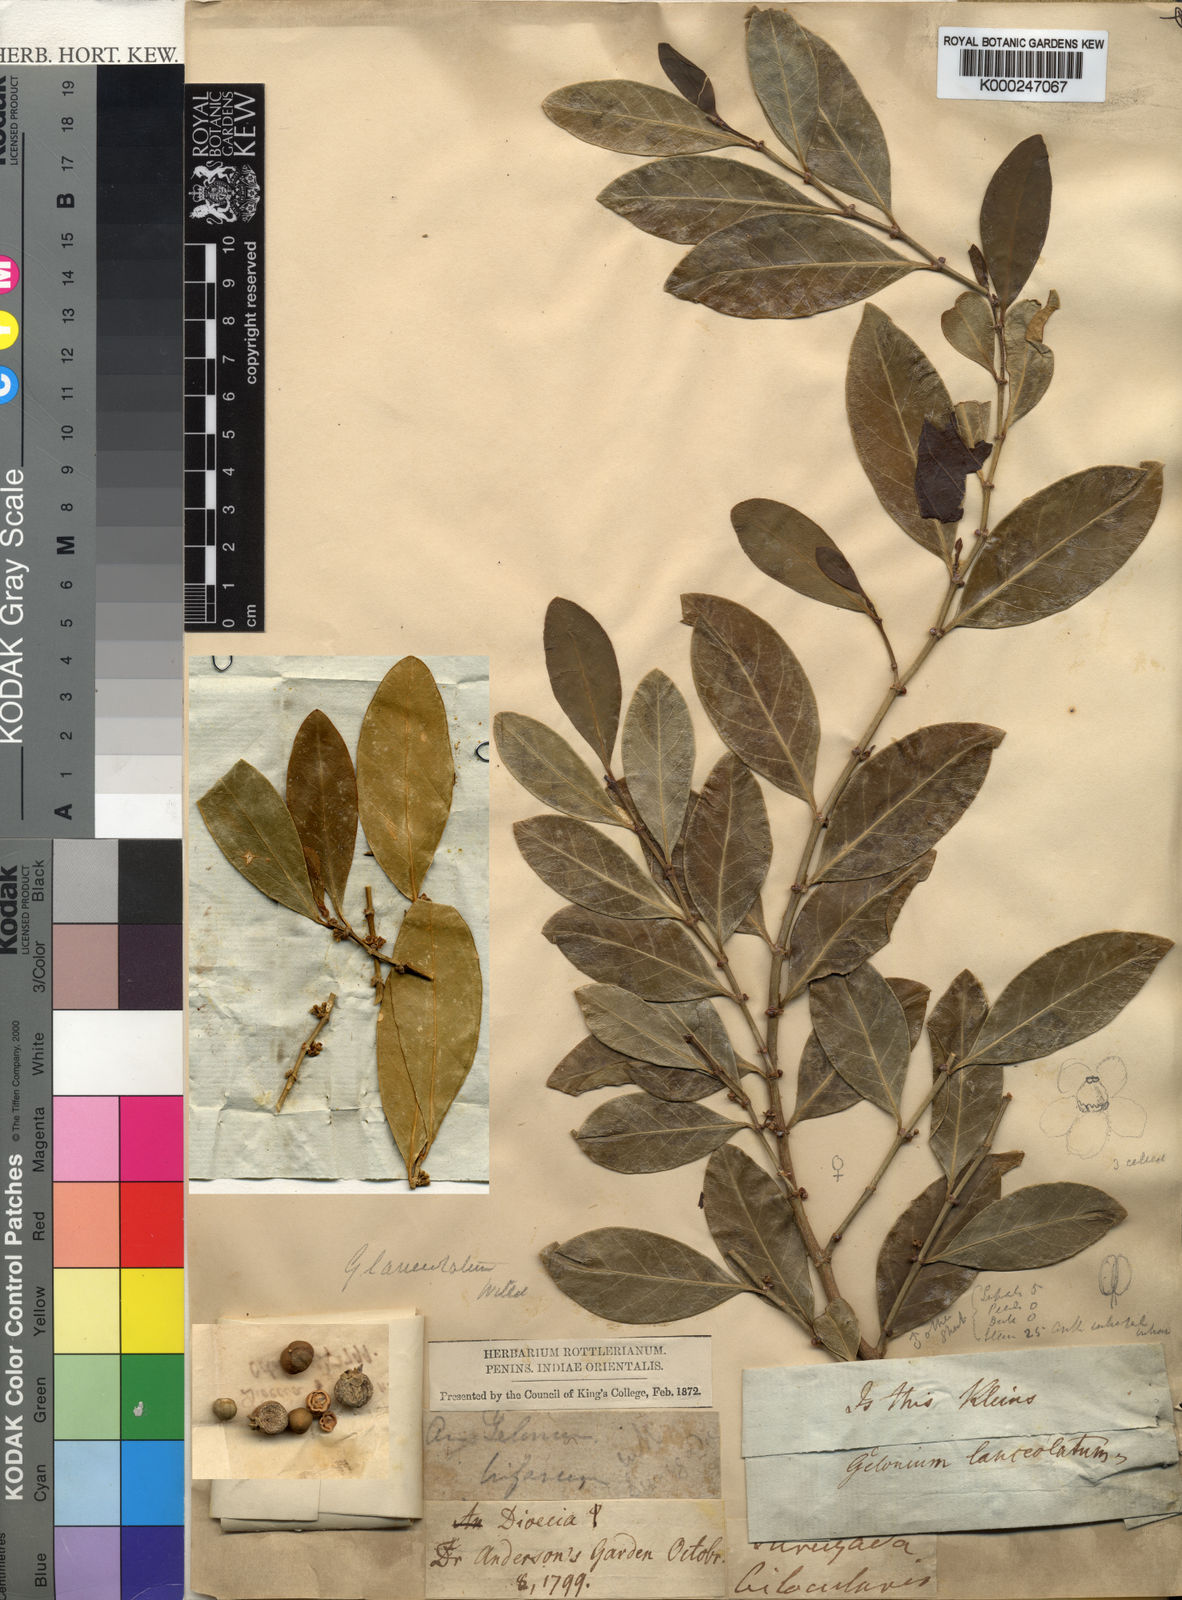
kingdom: Plantae
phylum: Tracheophyta
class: Magnoliopsida
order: Malpighiales
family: Euphorbiaceae
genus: Suregada
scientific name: Suregada lanceolata
